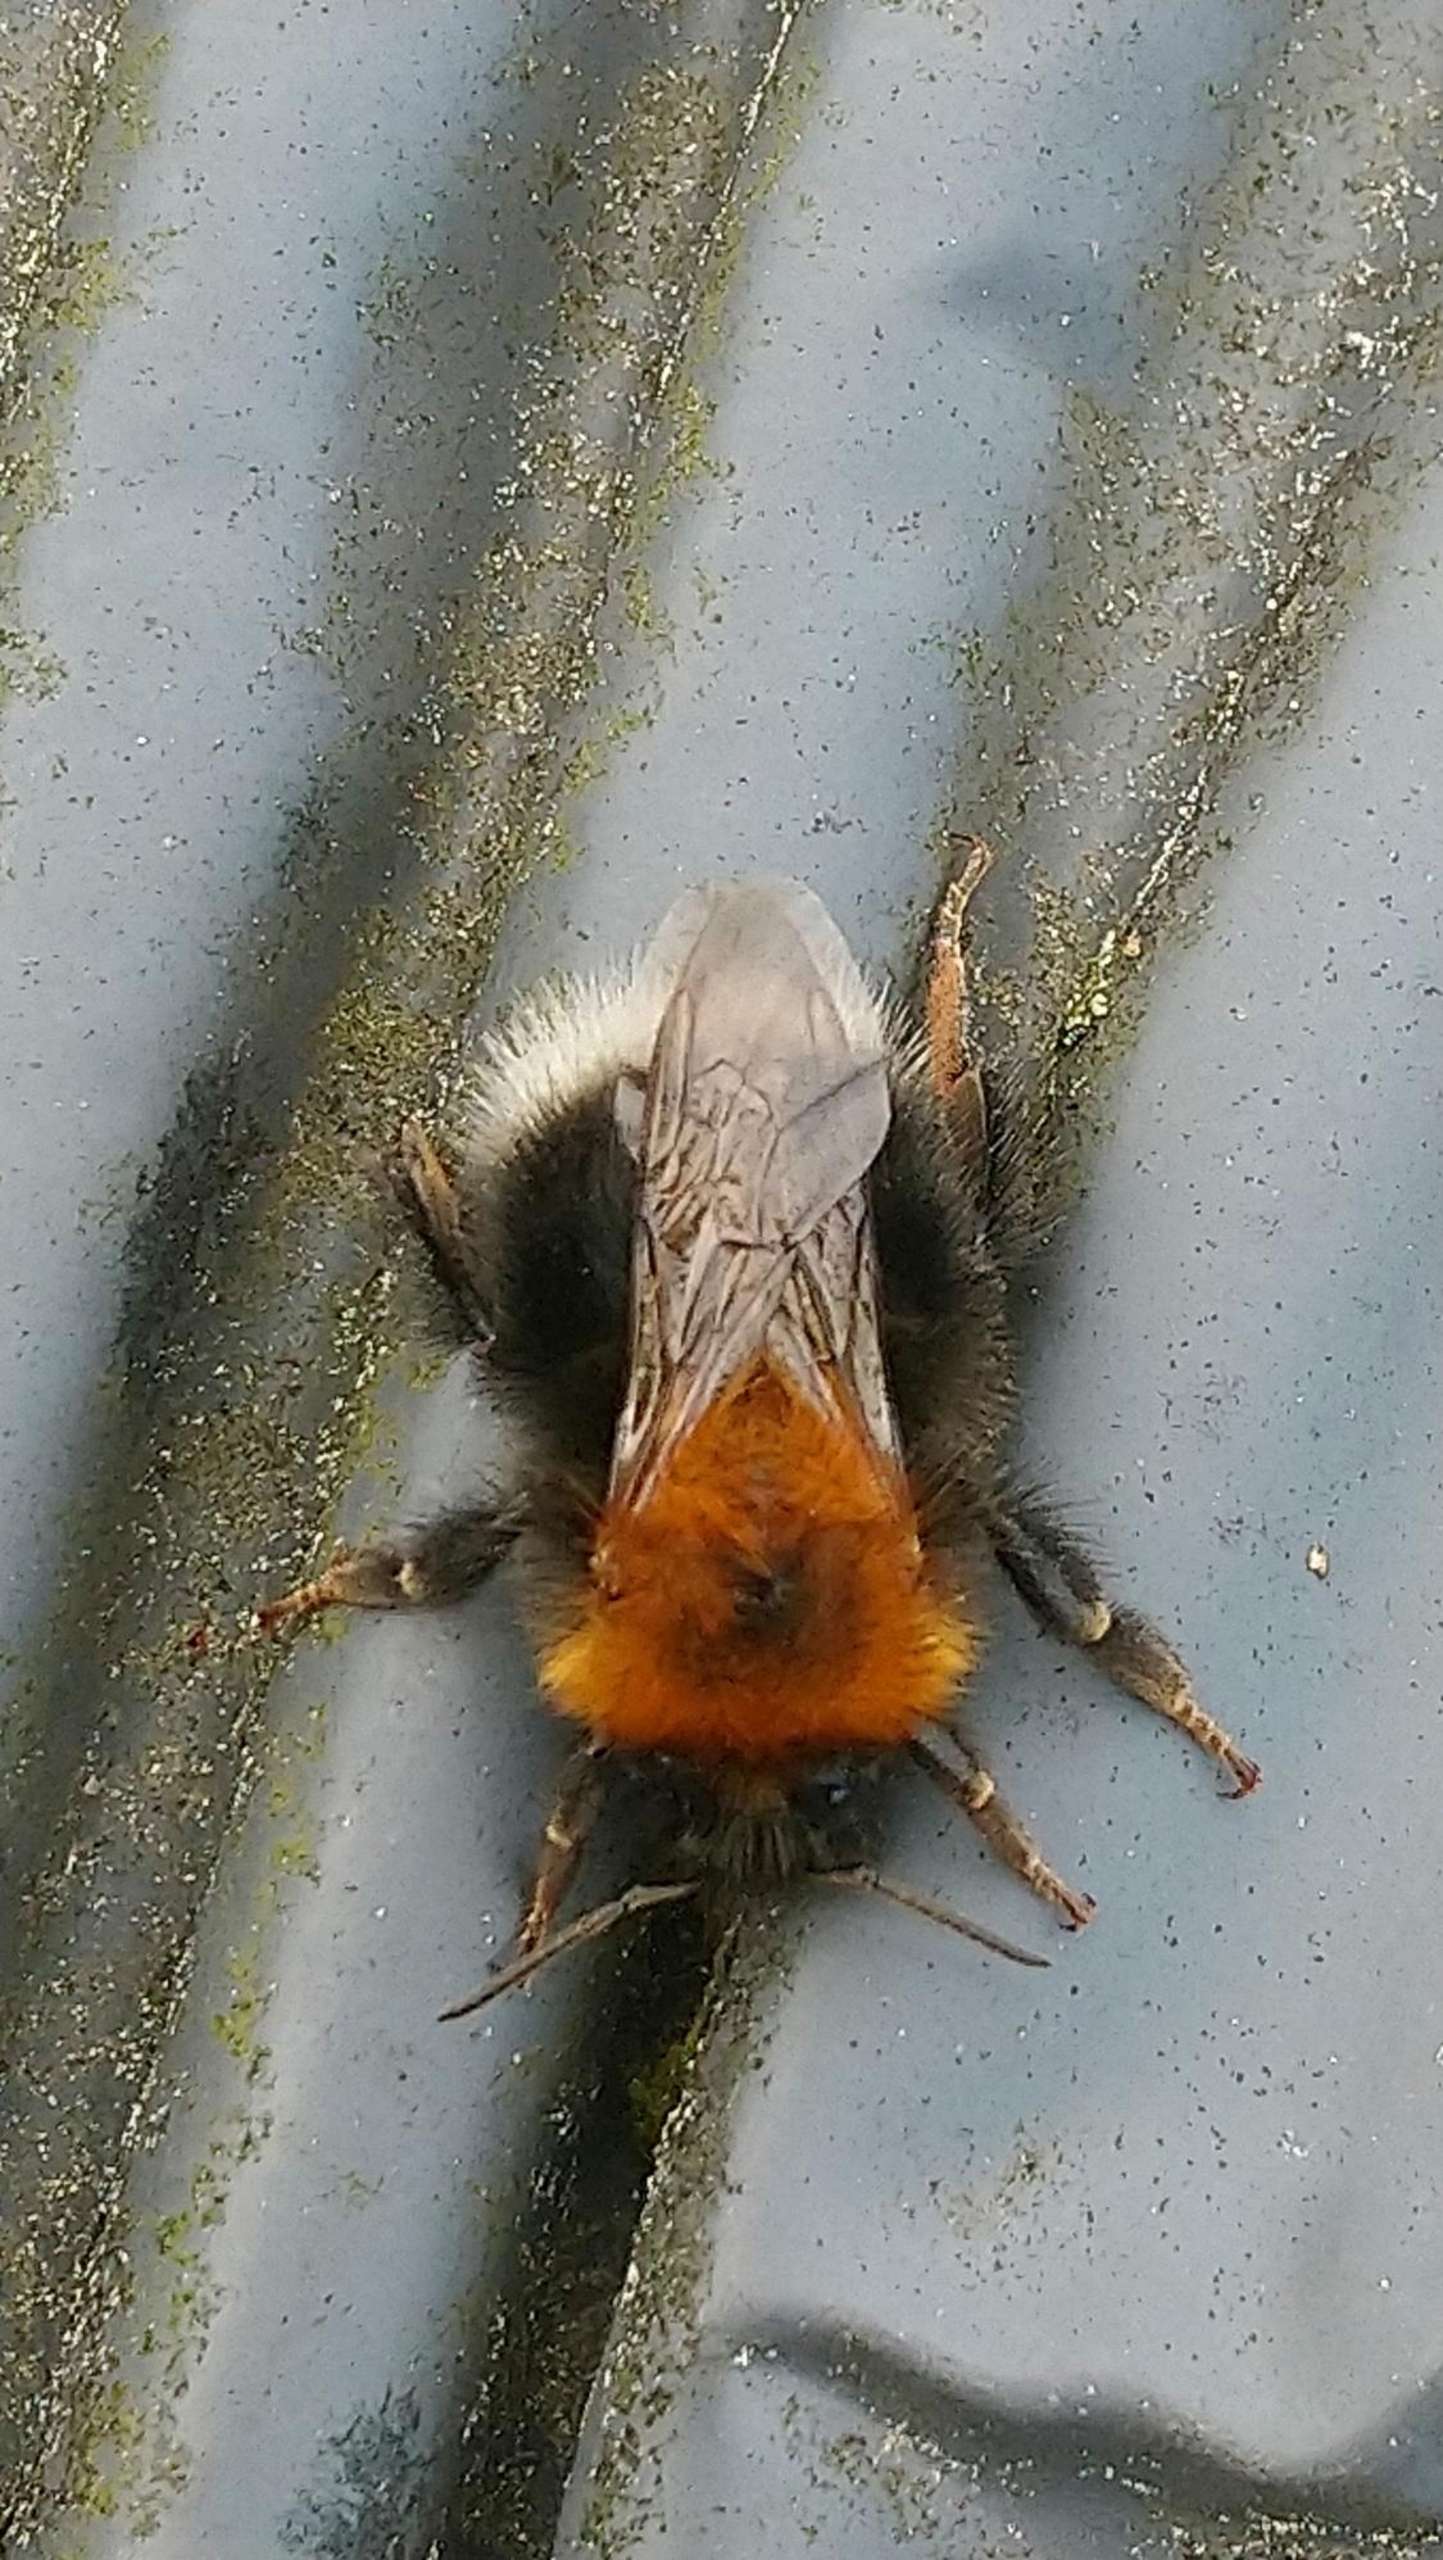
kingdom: Animalia
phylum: Arthropoda
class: Insecta
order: Hymenoptera
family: Apidae
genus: Bombus
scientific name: Bombus hypnorum
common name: Hushumle
